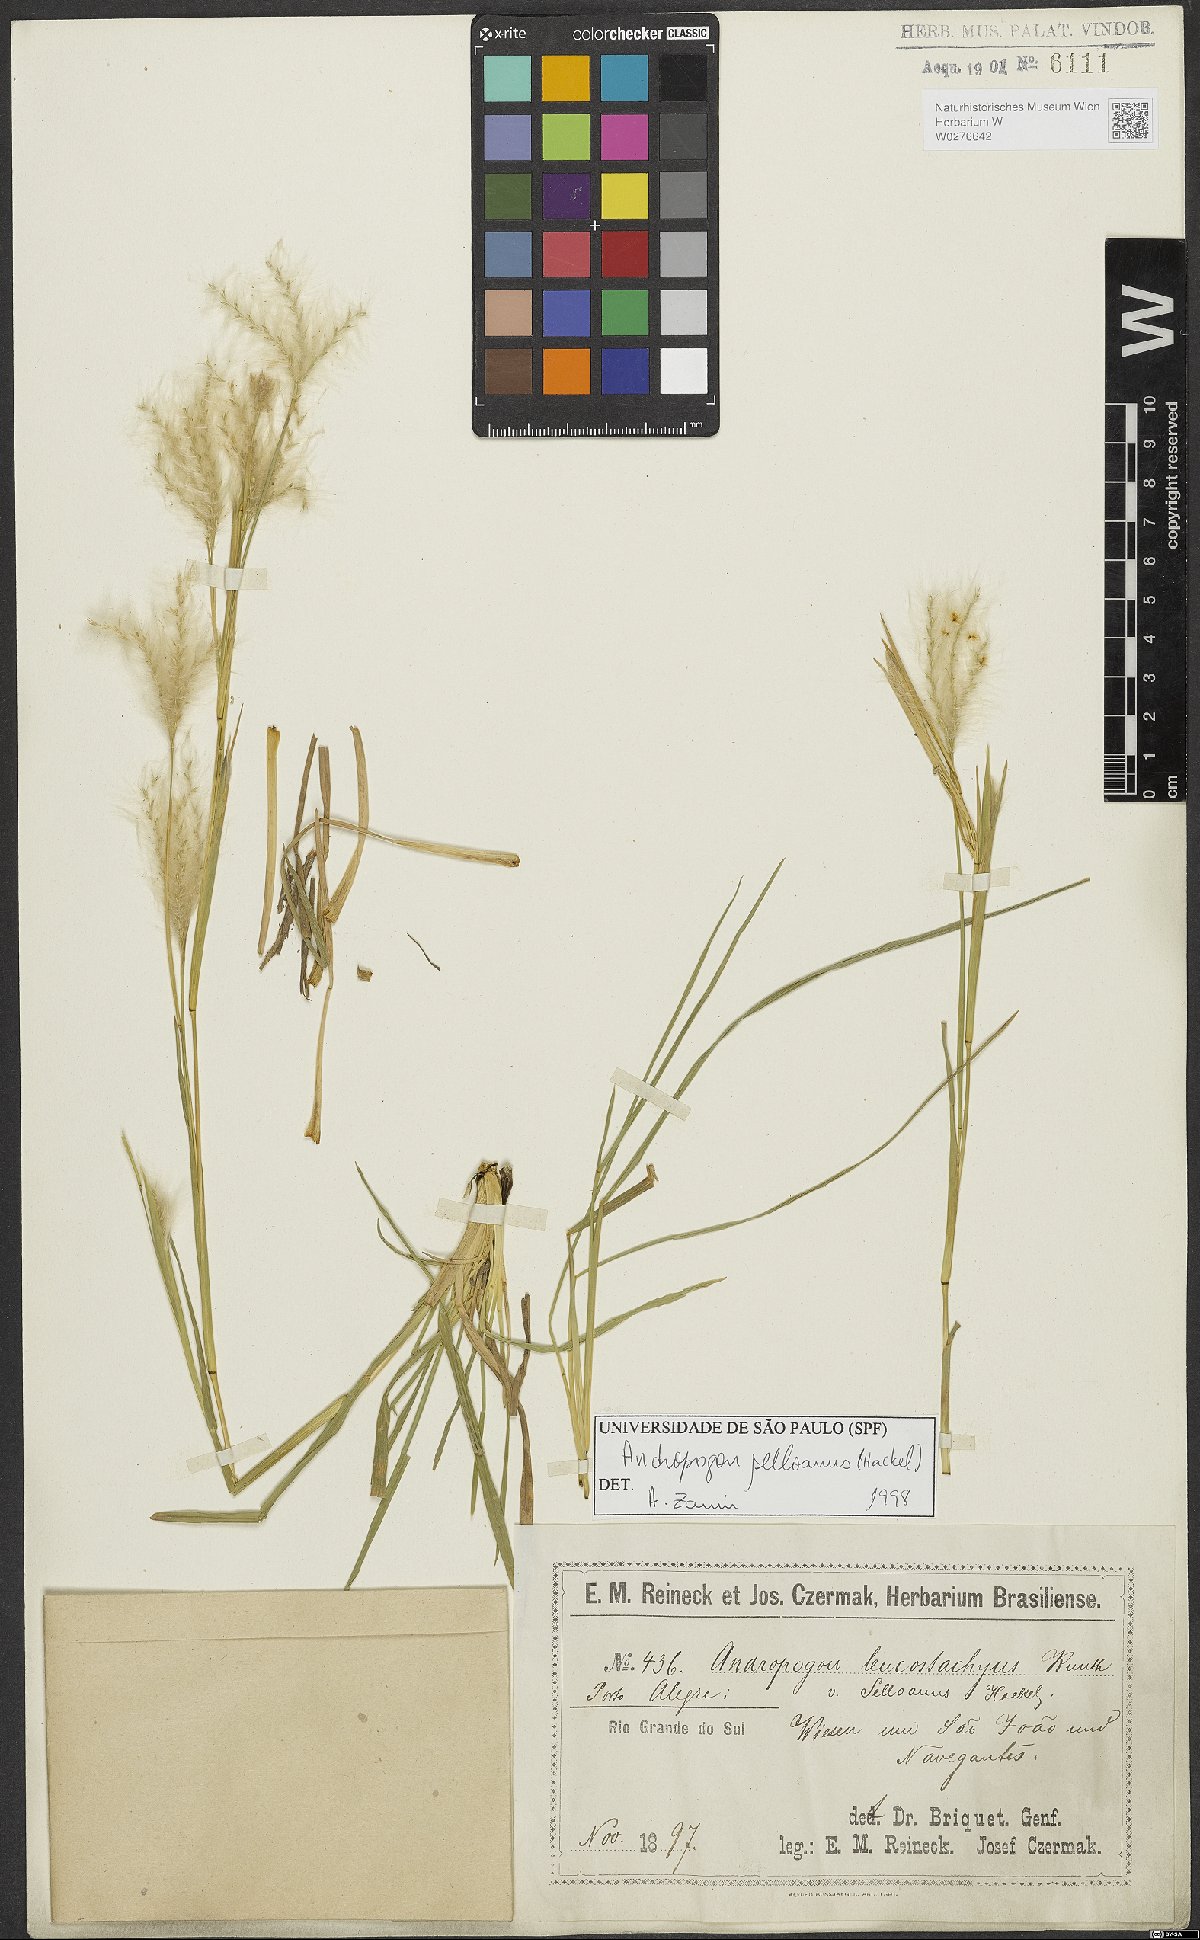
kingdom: Plantae
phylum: Tracheophyta
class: Liliopsida
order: Poales
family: Poaceae
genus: Andropogon
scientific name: Andropogon selloanus
